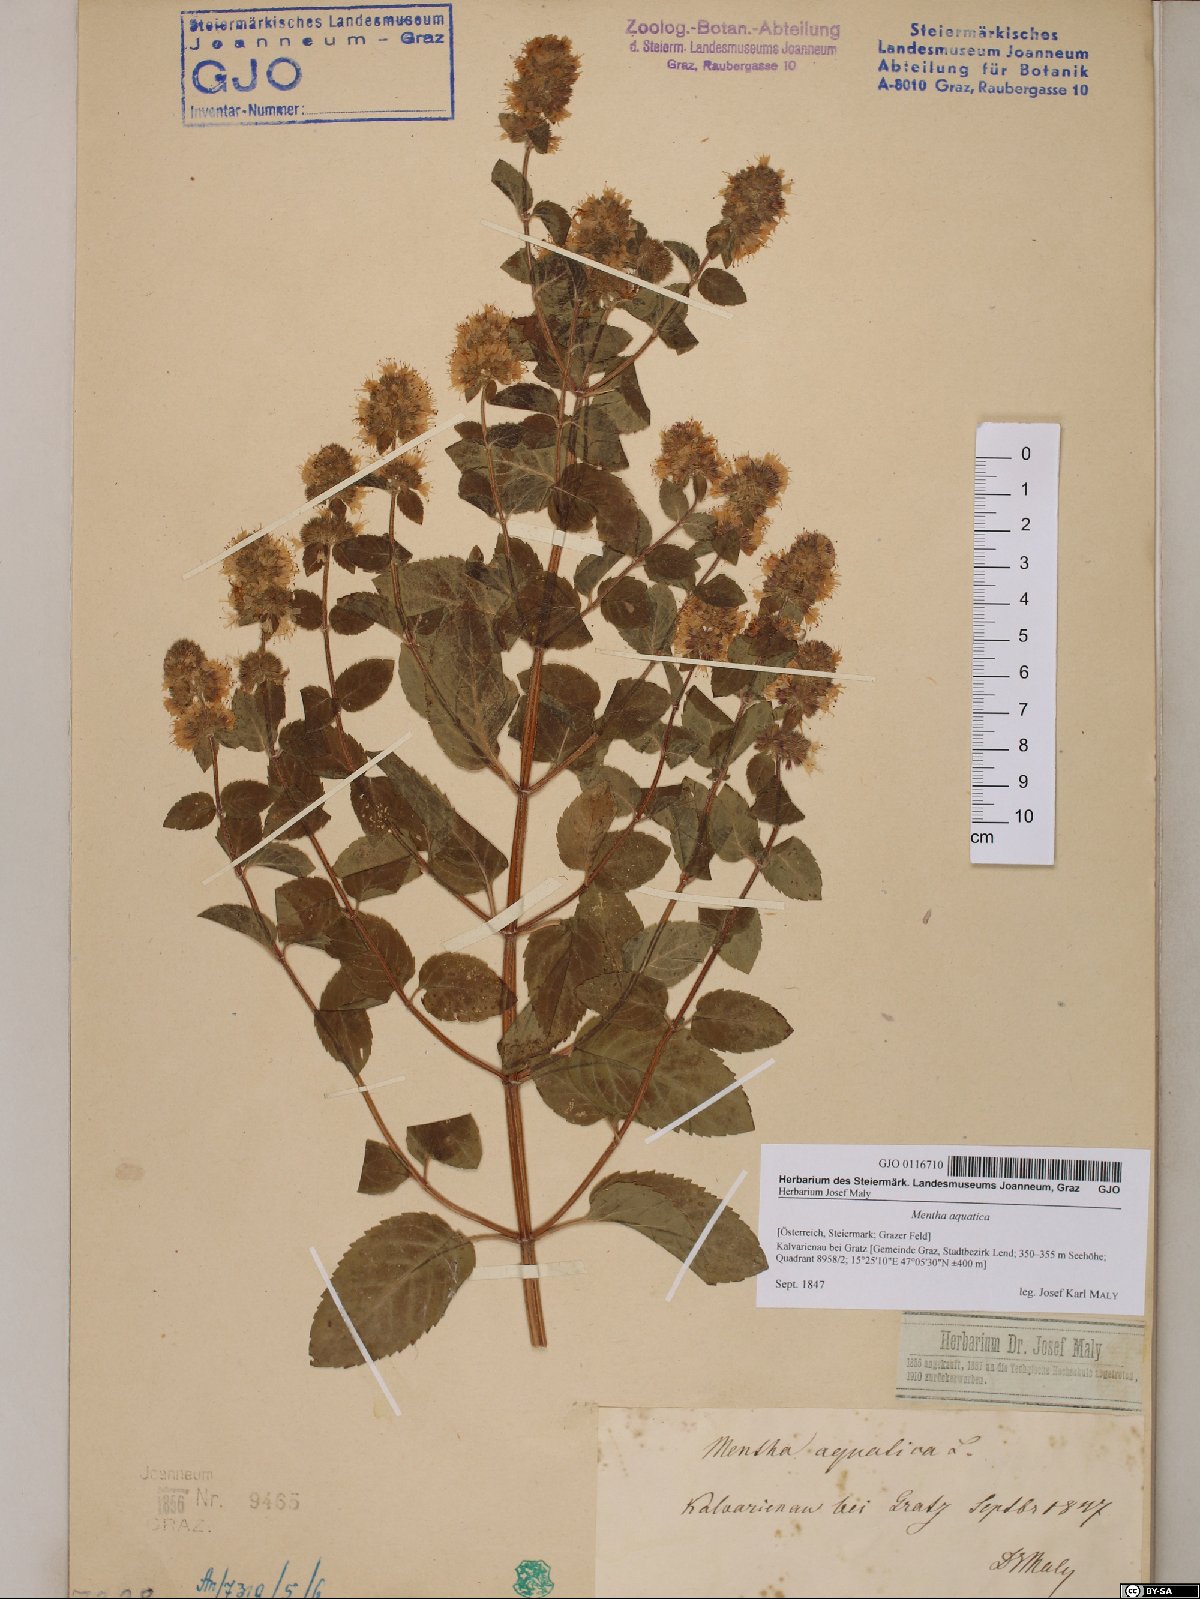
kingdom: Plantae
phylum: Tracheophyta
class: Magnoliopsida
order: Lamiales
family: Lamiaceae
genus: Mentha
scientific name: Mentha aquatica
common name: Water mint
